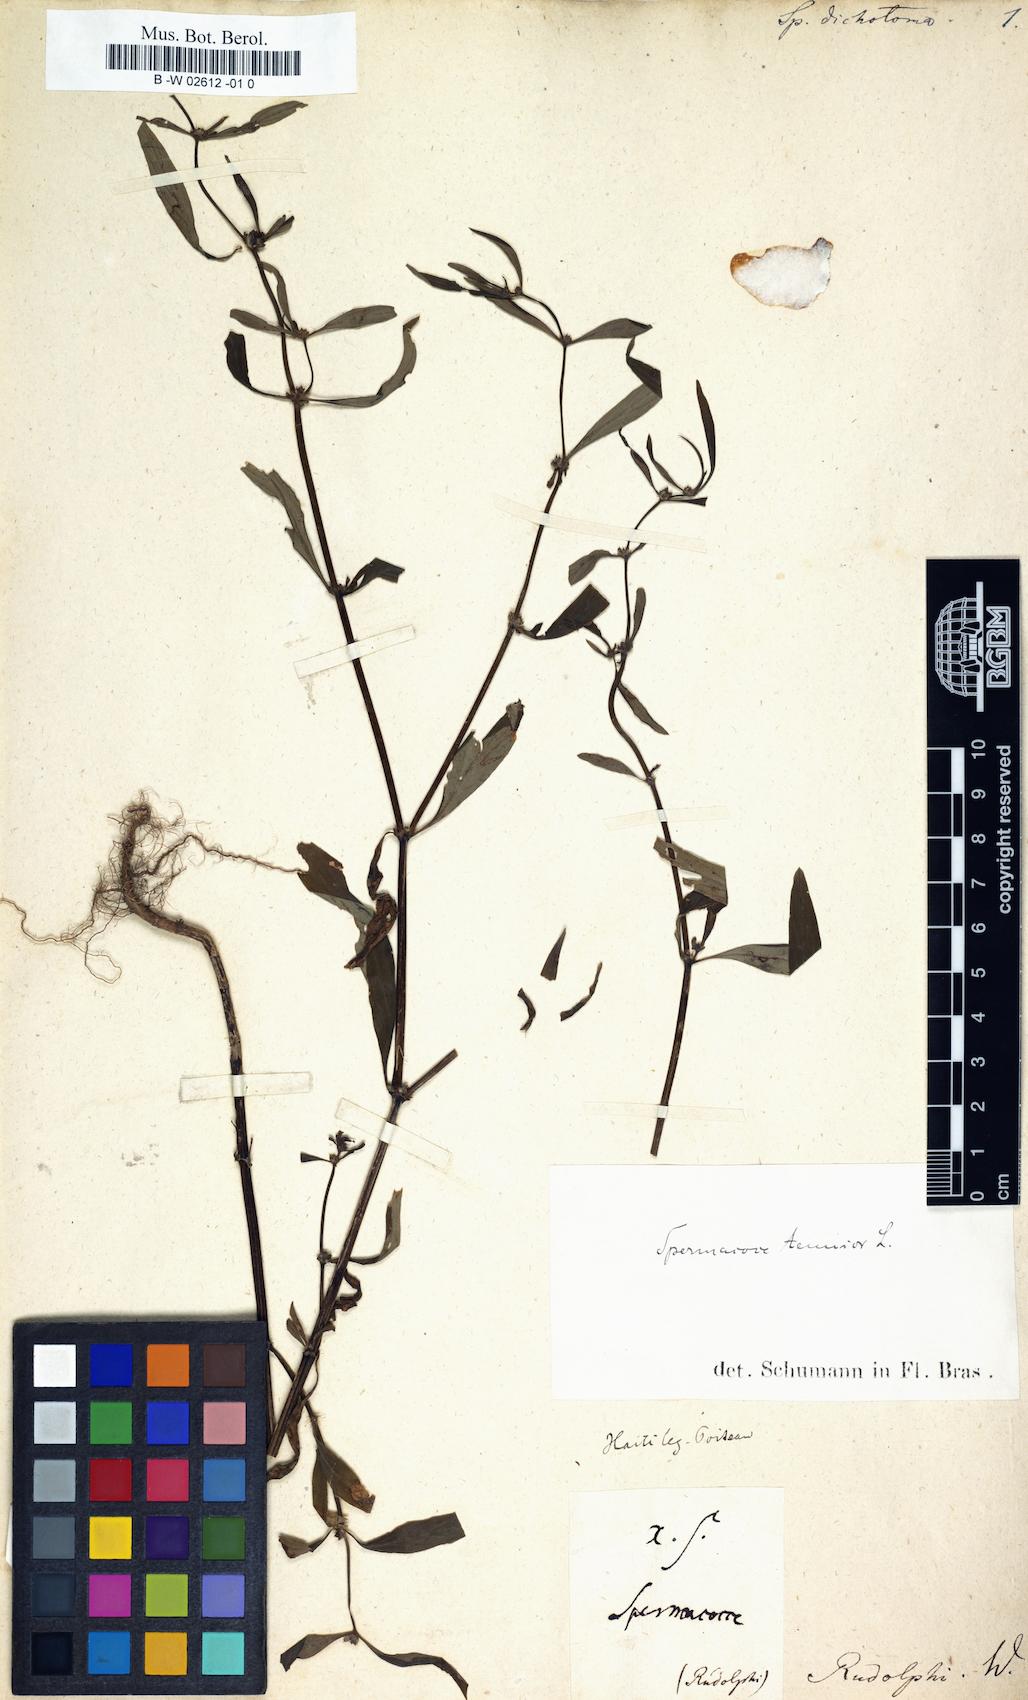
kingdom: Plantae
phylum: Tracheophyta
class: Magnoliopsida
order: Gentianales
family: Rubiaceae
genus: Spermacoce
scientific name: Spermacoce tenuior
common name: River false buttonweed
